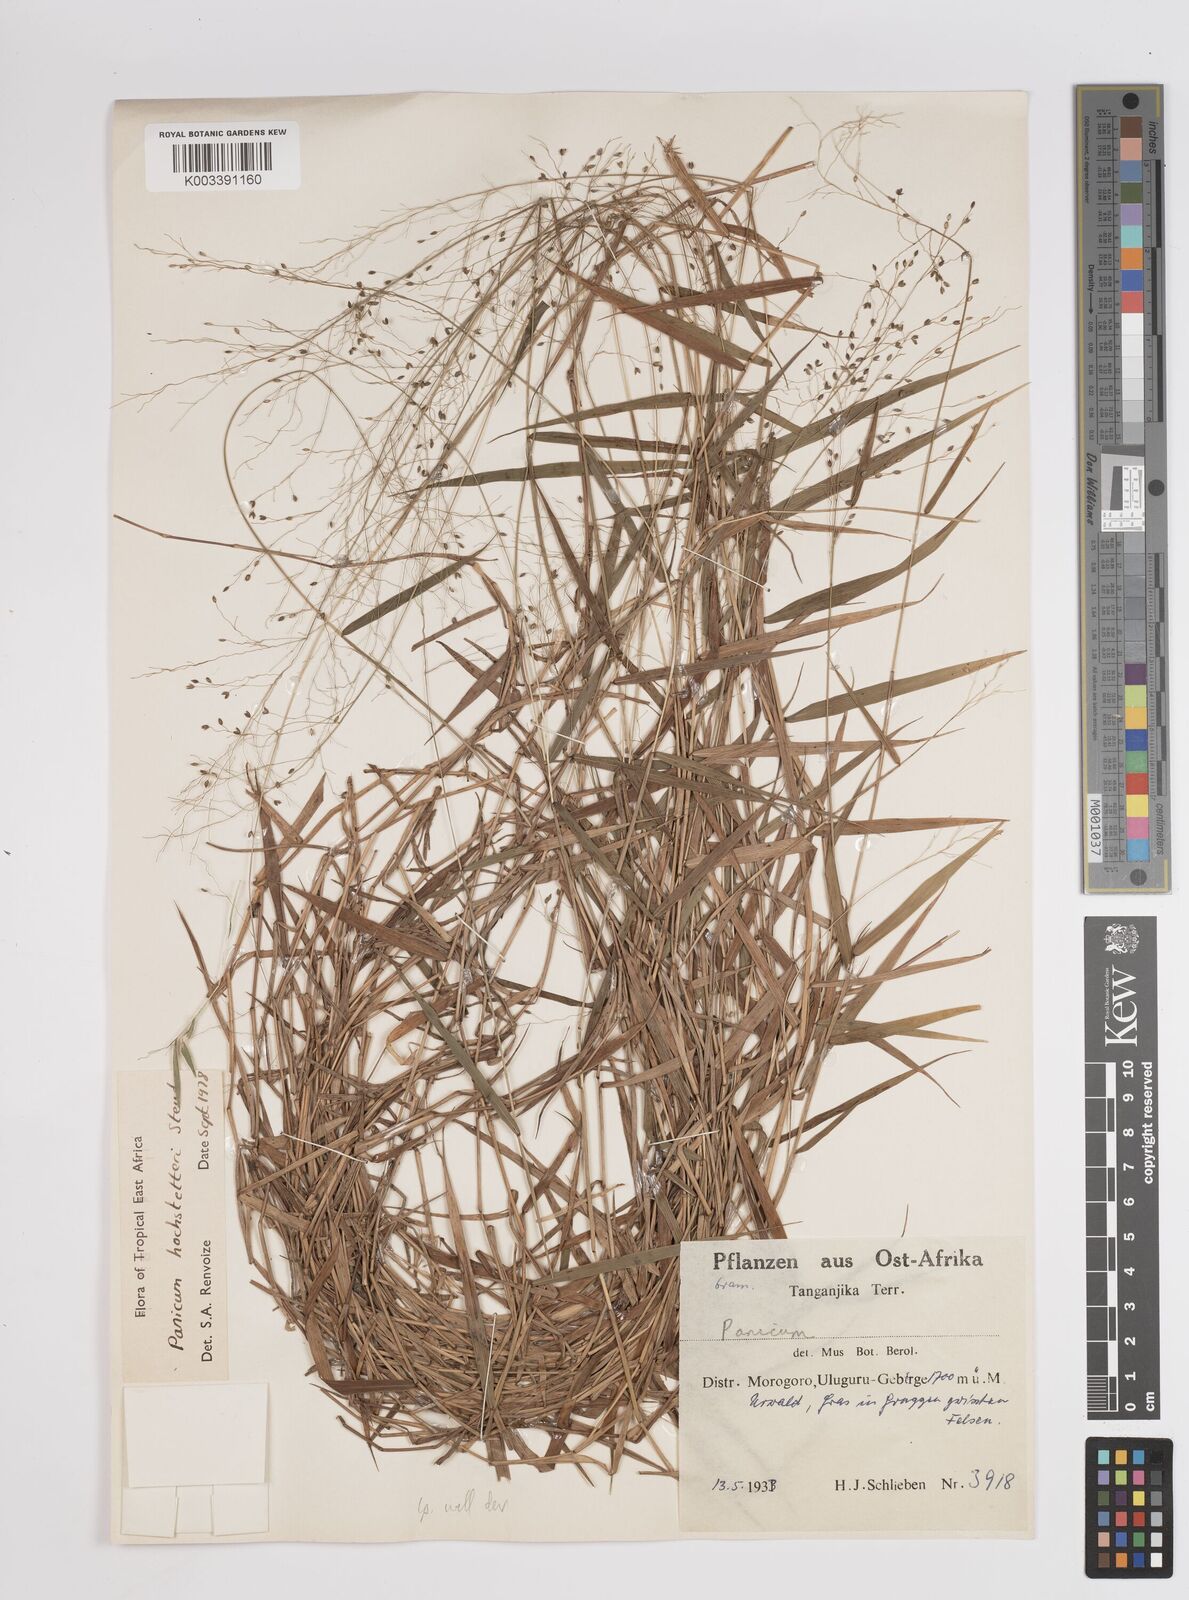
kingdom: Plantae
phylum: Tracheophyta
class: Liliopsida
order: Poales
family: Poaceae
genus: Panicum
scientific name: Panicum hochstetteri
